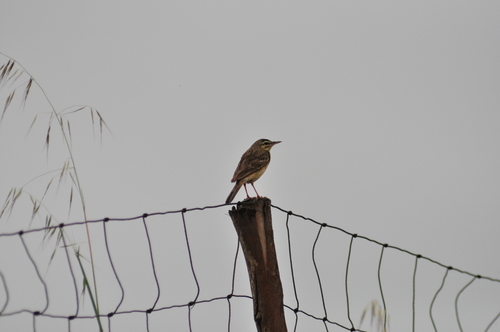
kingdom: Animalia
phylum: Chordata
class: Aves
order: Passeriformes
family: Motacillidae
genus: Anthus
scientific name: Anthus campestris
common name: Tawny pipit
